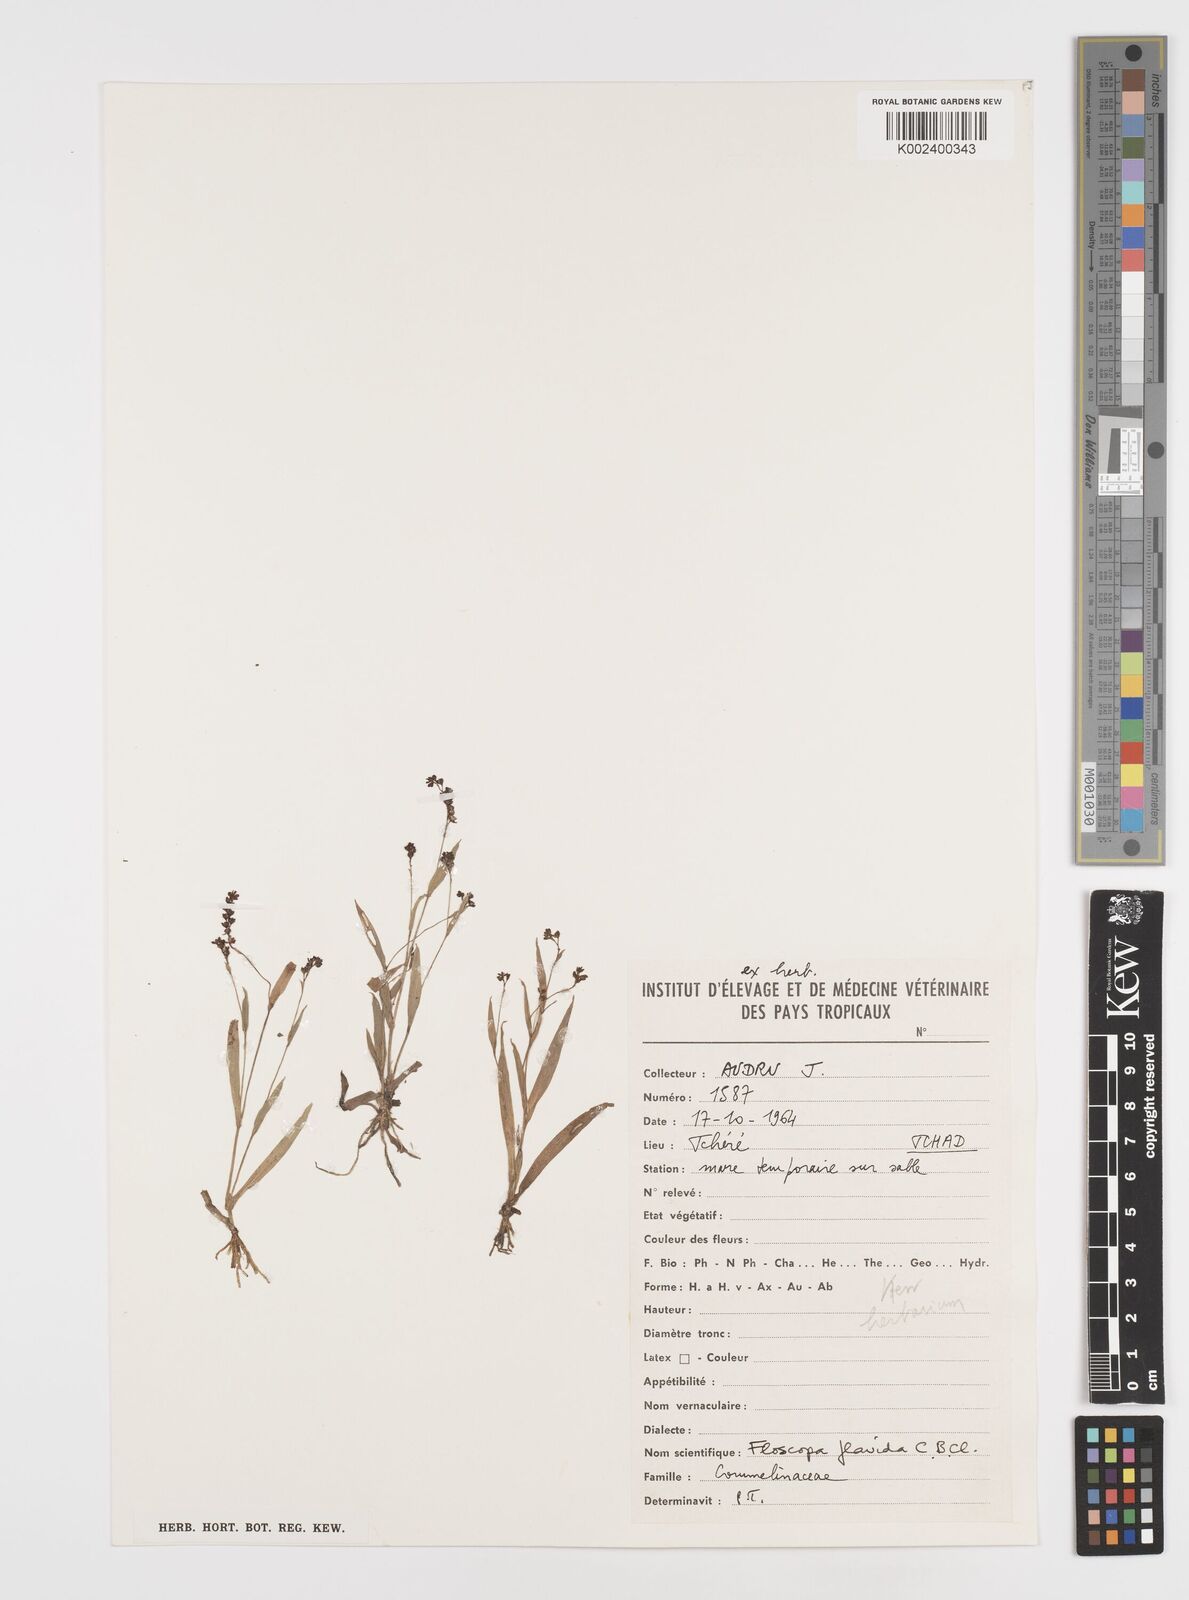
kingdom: Plantae
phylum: Tracheophyta
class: Liliopsida
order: Commelinales
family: Commelinaceae
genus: Floscopa
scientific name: Floscopa flavida
